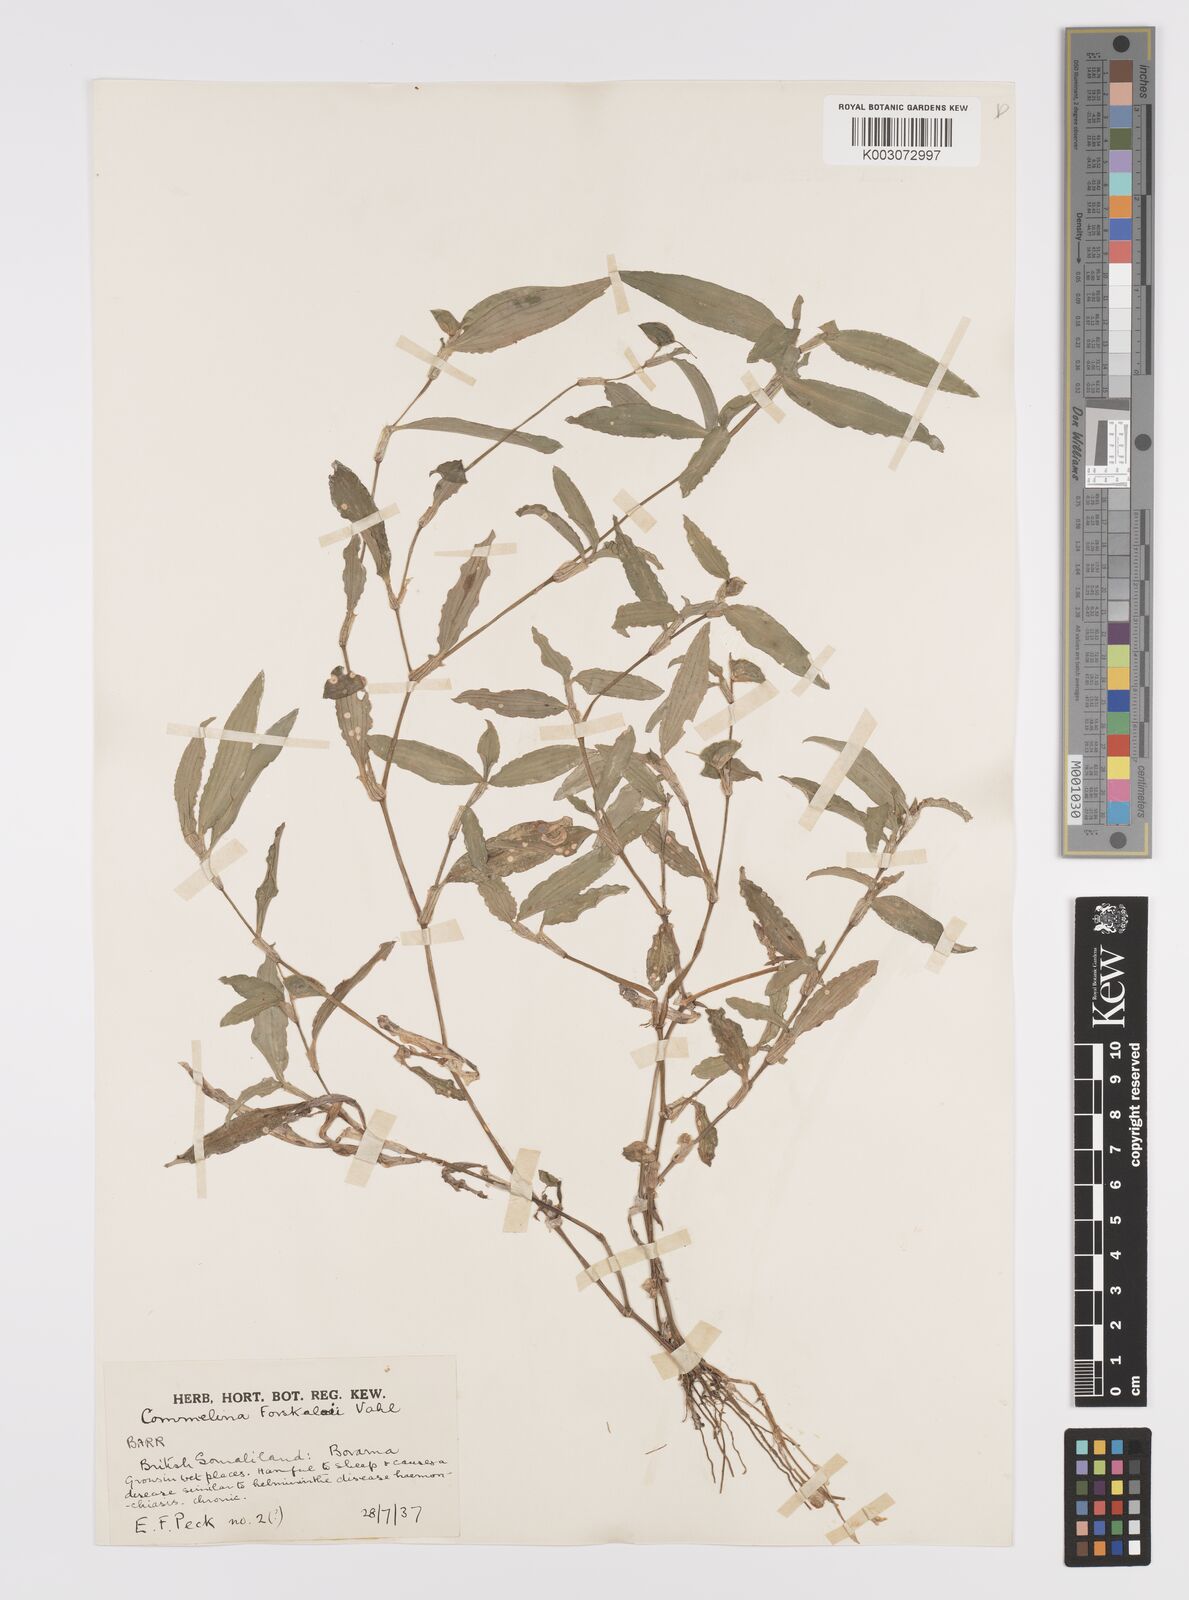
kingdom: Plantae
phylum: Tracheophyta
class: Liliopsida
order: Commelinales
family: Commelinaceae
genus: Commelina
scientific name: Commelina forskaolii
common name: Rat's ear
